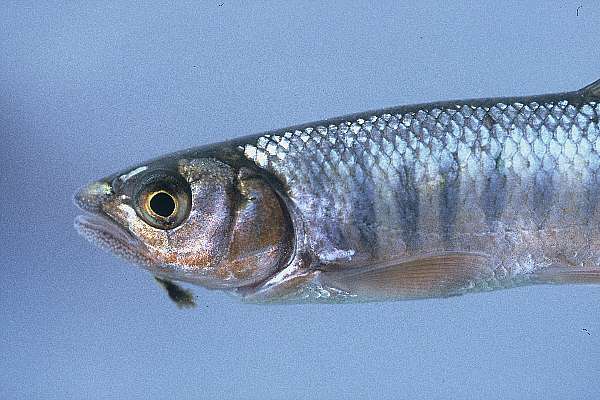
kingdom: Animalia
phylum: Chordata
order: Cypriniformes
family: Cyprinidae
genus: Opsaridium
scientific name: Opsaridium microcephalum
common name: Lake trout
